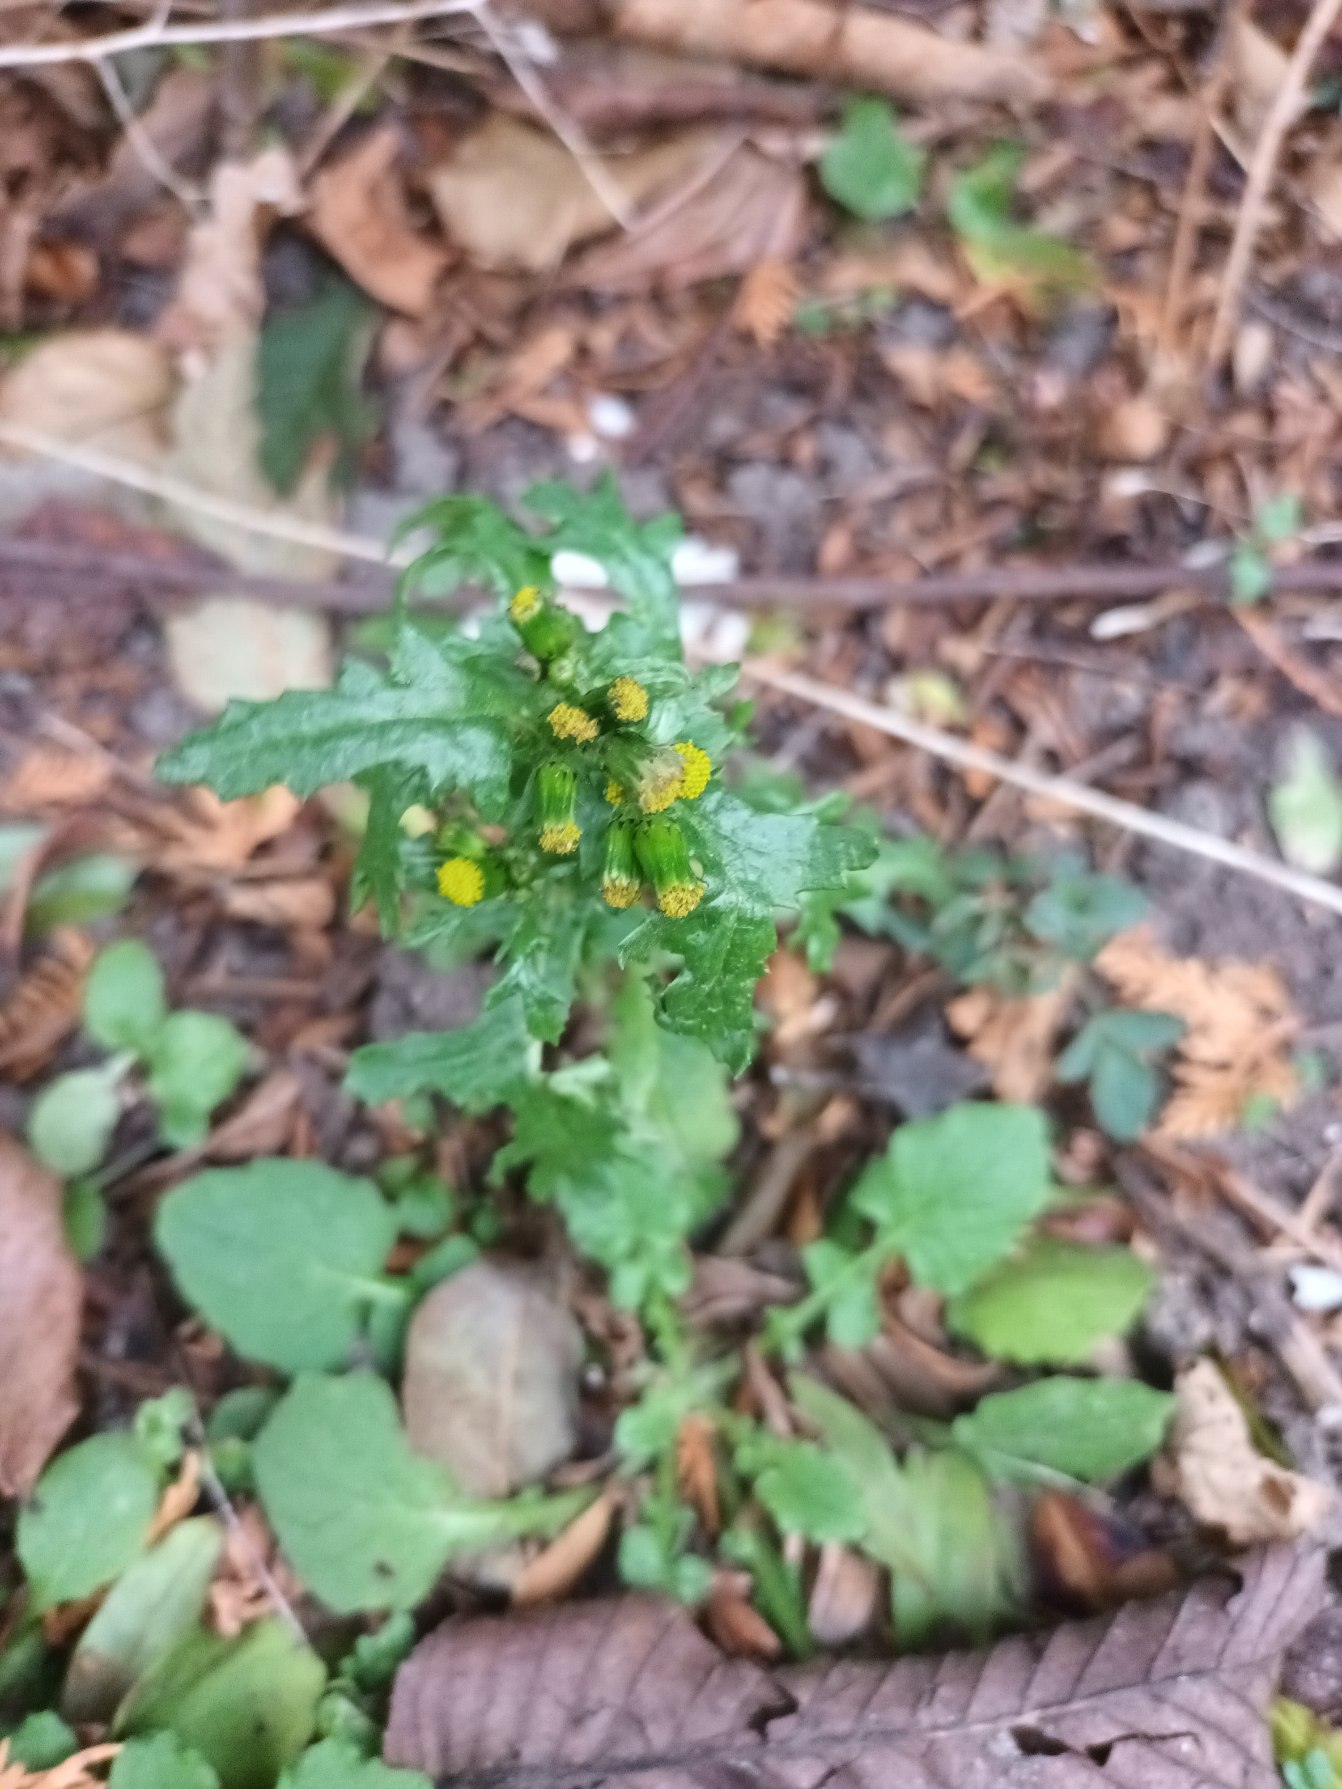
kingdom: Plantae
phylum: Tracheophyta
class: Magnoliopsida
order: Asterales
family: Asteraceae
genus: Senecio
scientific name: Senecio vulgaris
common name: Almindelig brandbæger
